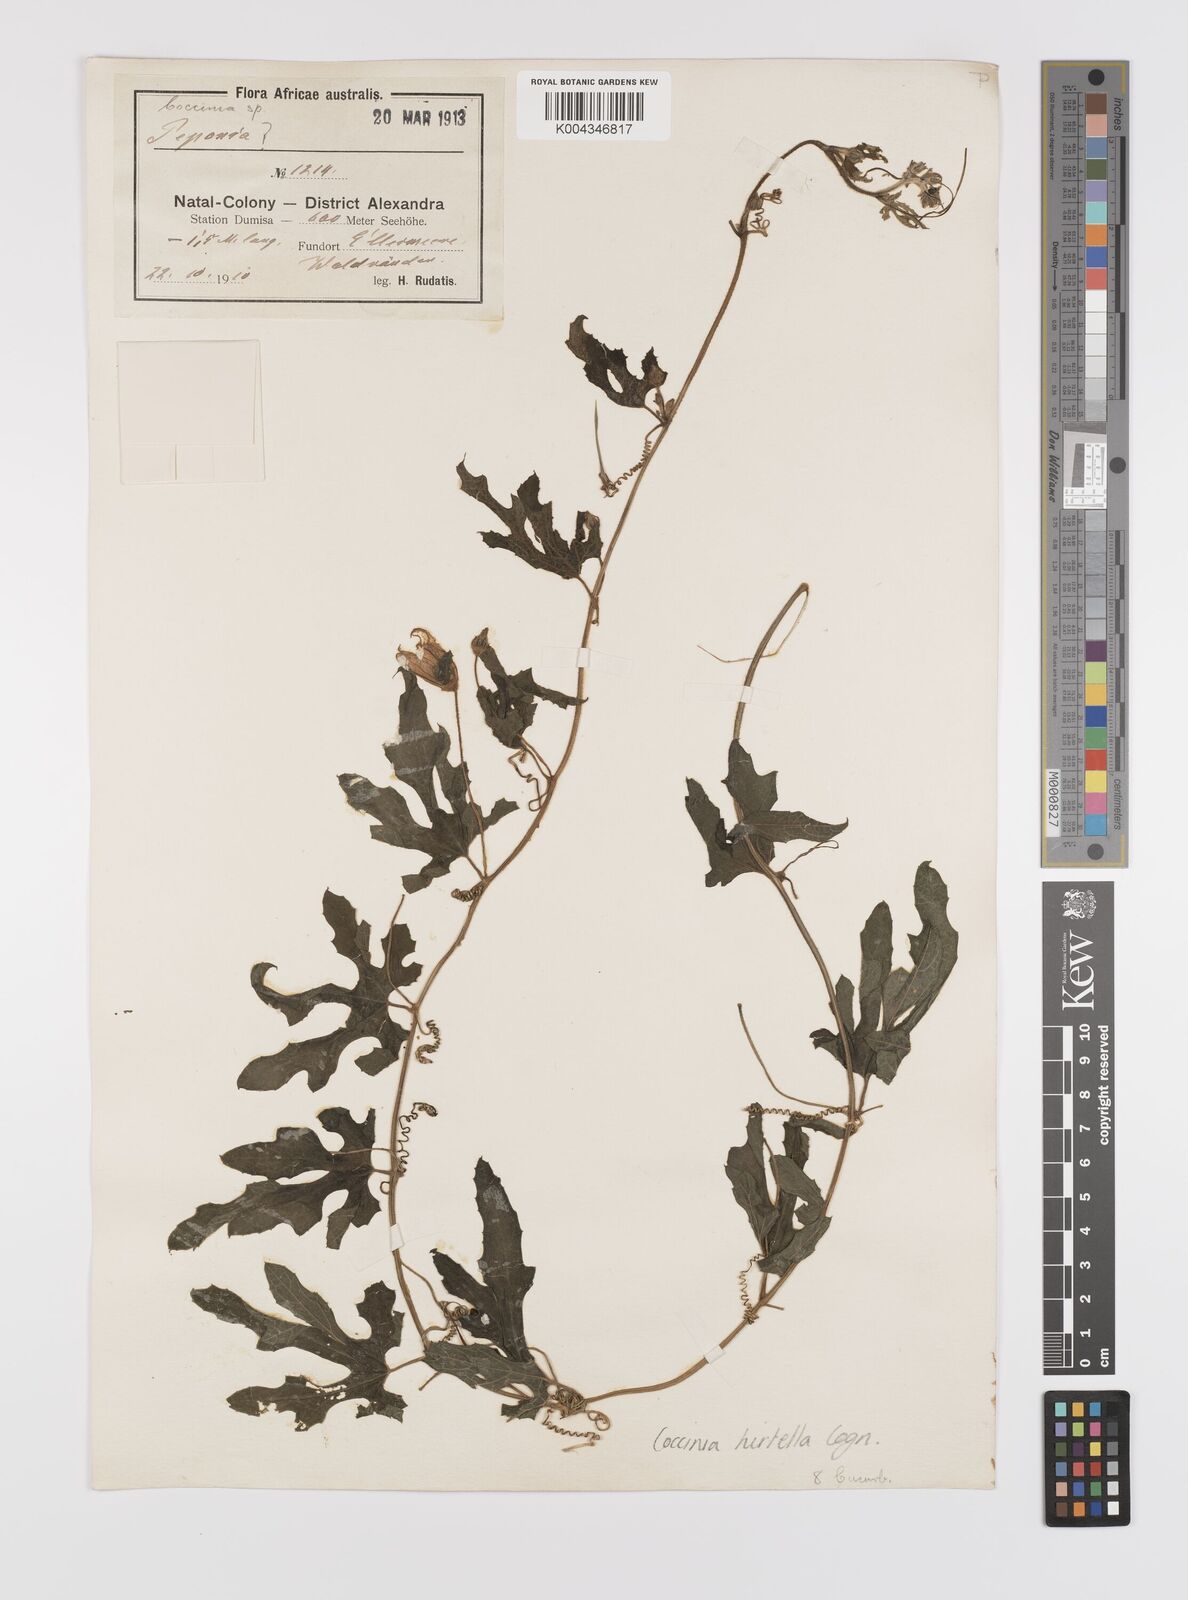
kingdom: Plantae
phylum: Tracheophyta
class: Magnoliopsida
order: Cucurbitales
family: Cucurbitaceae
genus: Coccinia
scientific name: Coccinia hirtella
